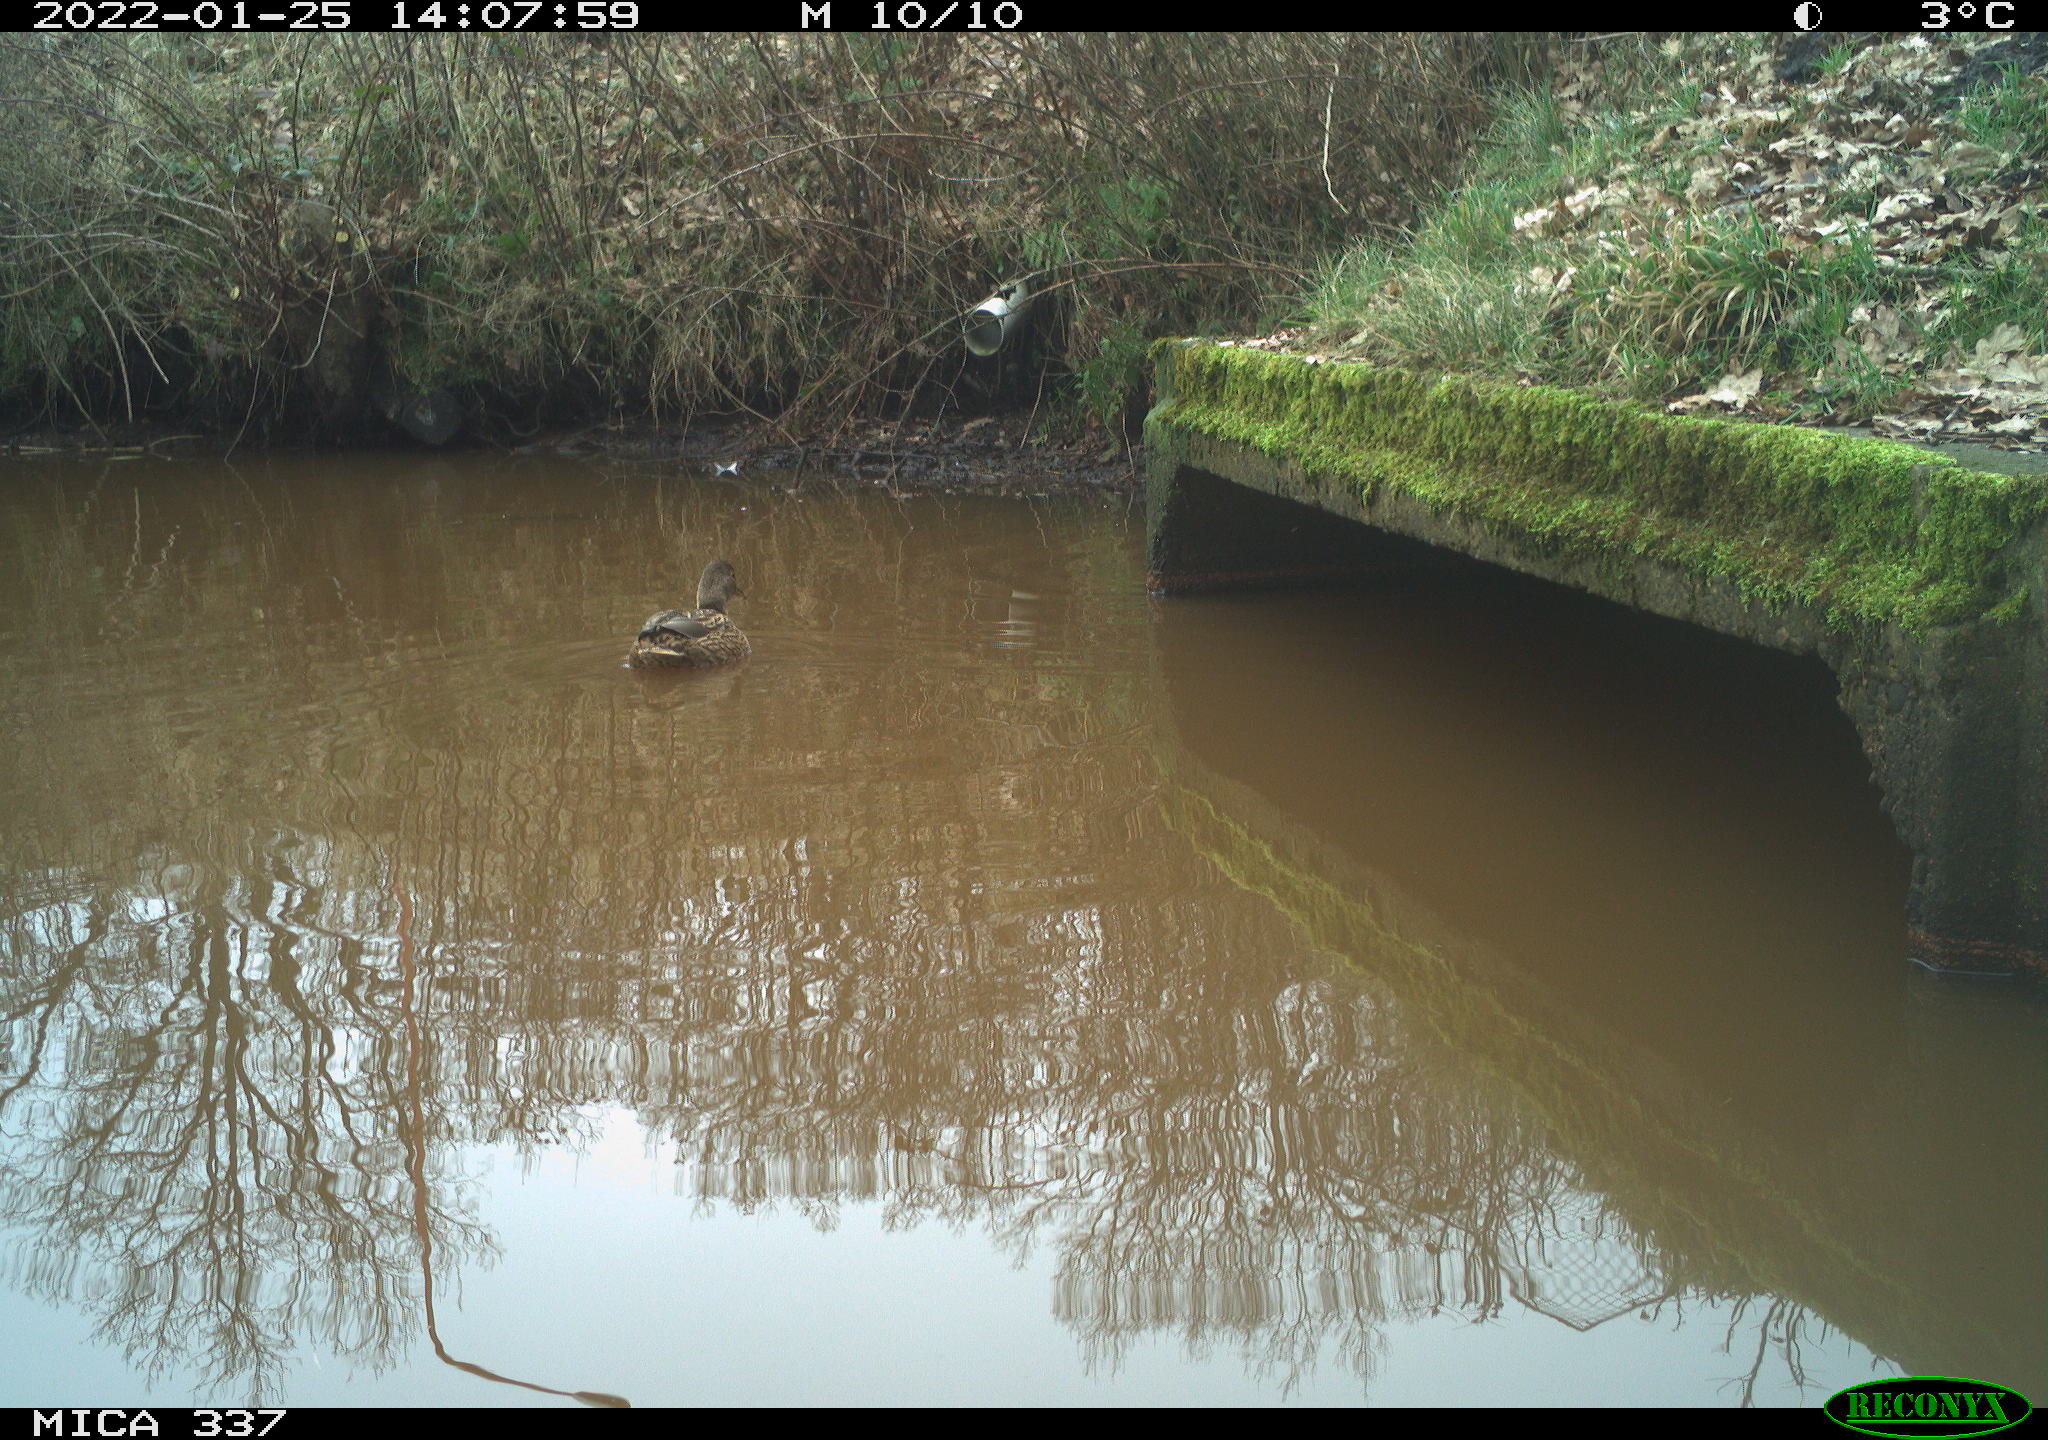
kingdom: Animalia
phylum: Chordata
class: Aves
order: Anseriformes
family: Anatidae
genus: Anas
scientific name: Anas platyrhynchos
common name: Mallard
